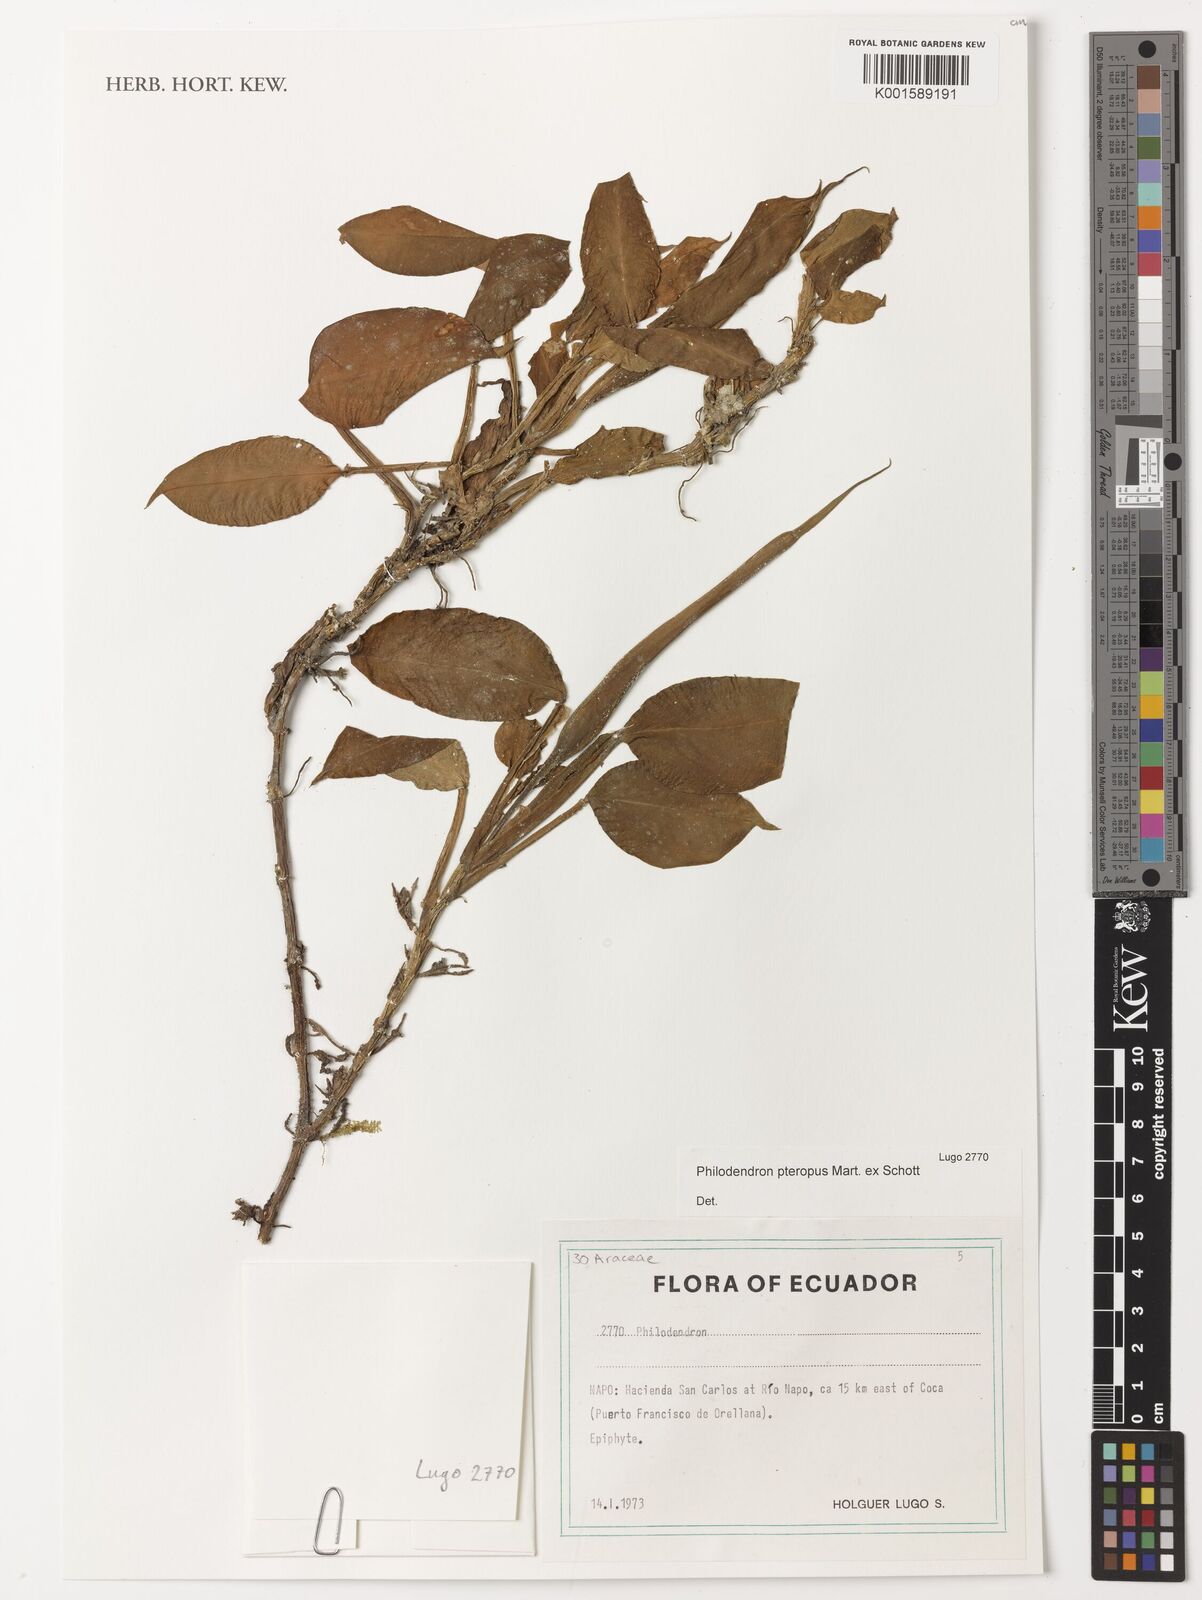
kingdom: Plantae
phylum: Tracheophyta
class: Liliopsida
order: Alismatales
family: Araceae
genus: Philodendron
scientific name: Philodendron pteropus
